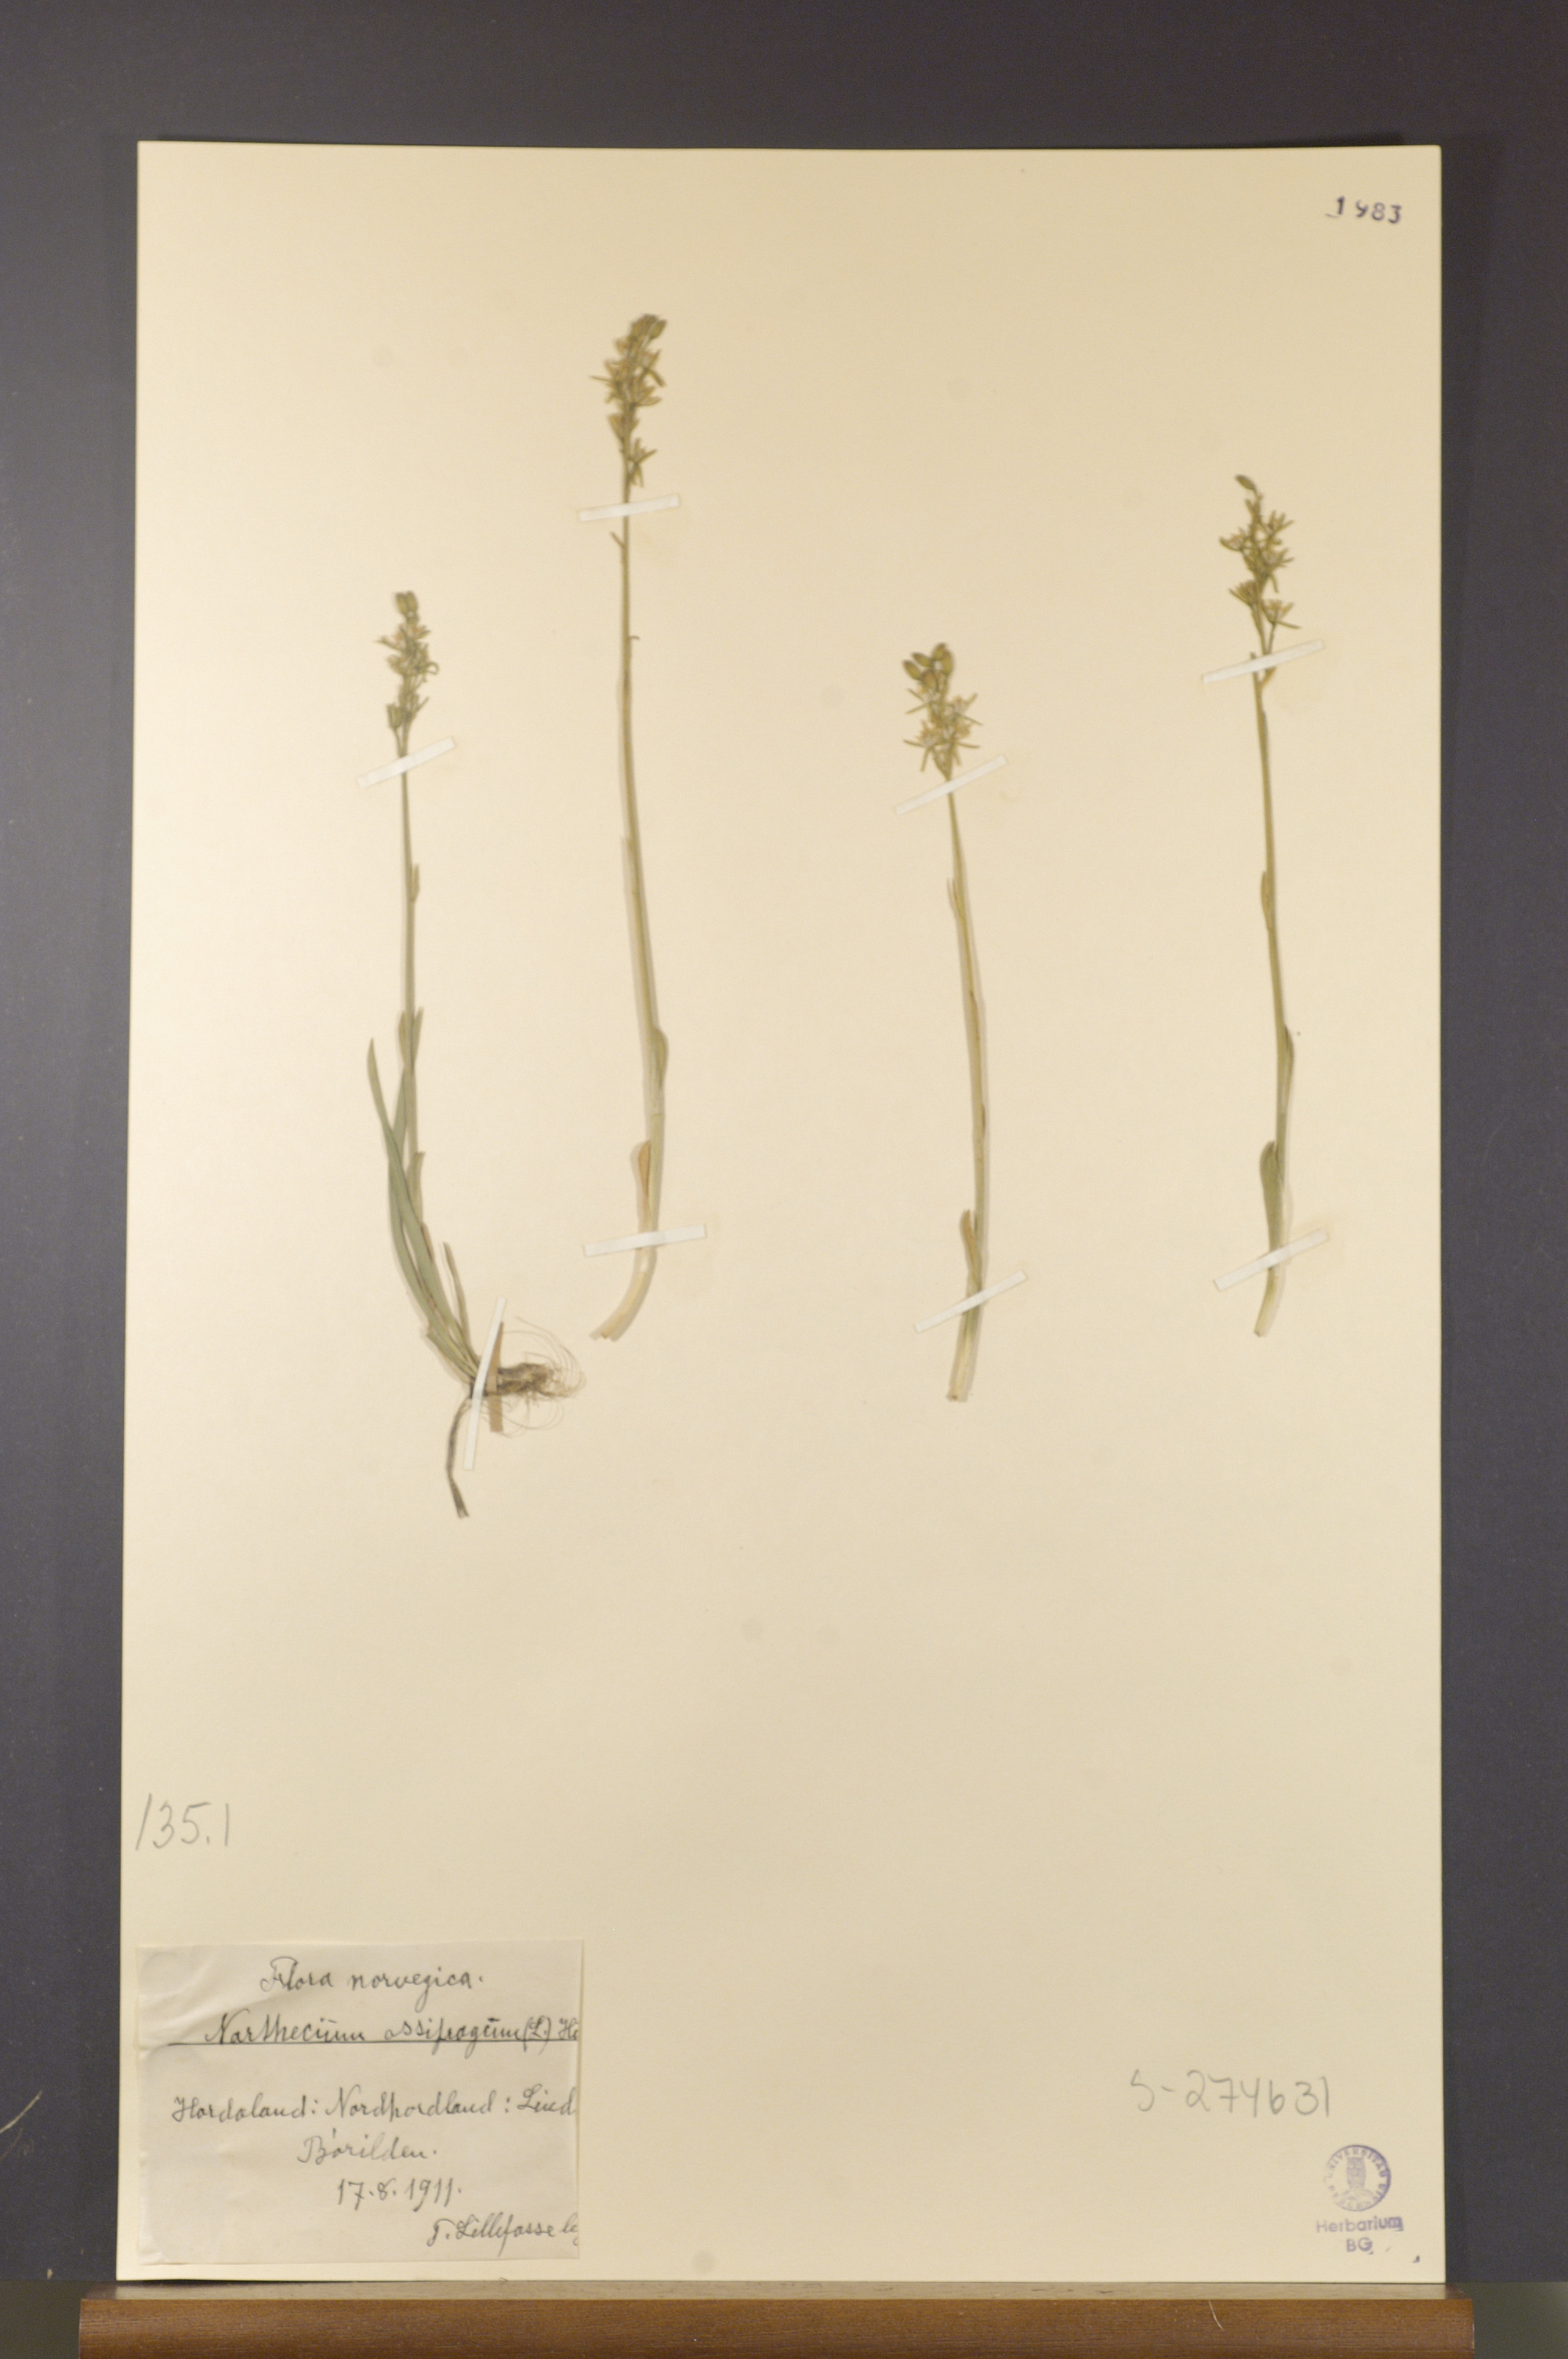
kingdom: Plantae
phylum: Tracheophyta
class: Liliopsida
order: Dioscoreales
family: Nartheciaceae
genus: Narthecium
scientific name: Narthecium ossifragum
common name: Bog asphodel
